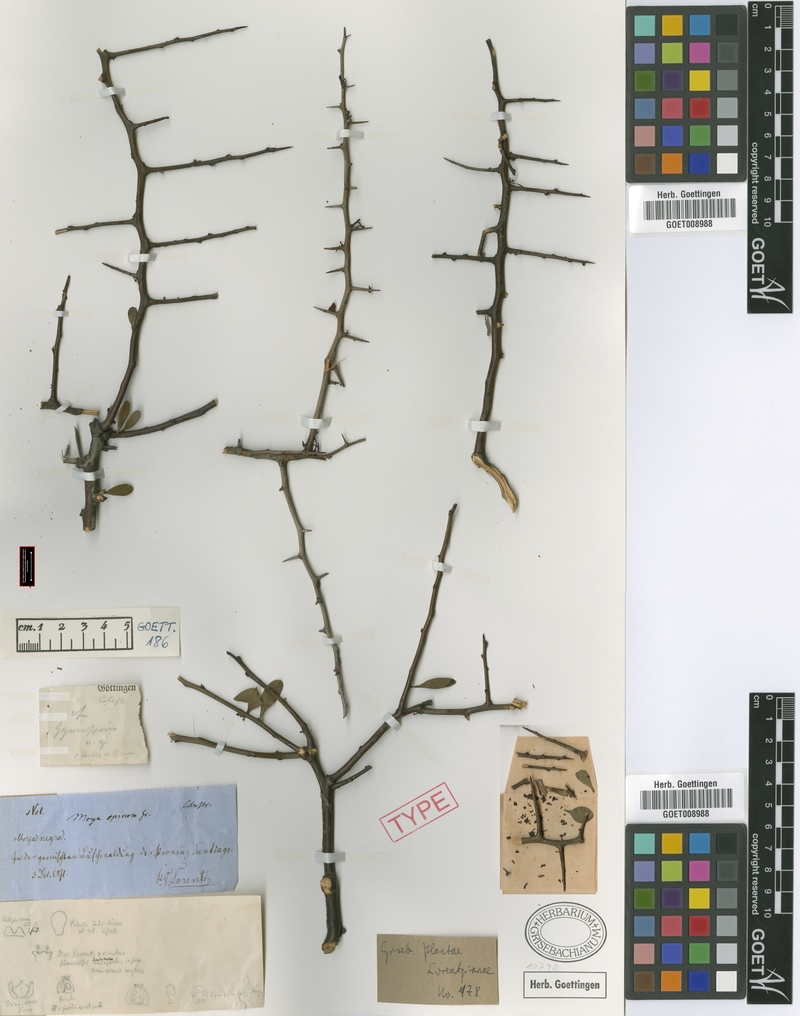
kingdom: Plantae
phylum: Tracheophyta
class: Magnoliopsida
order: Celastrales
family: Celastraceae
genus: Monteverdia
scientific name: Monteverdia spinosa
